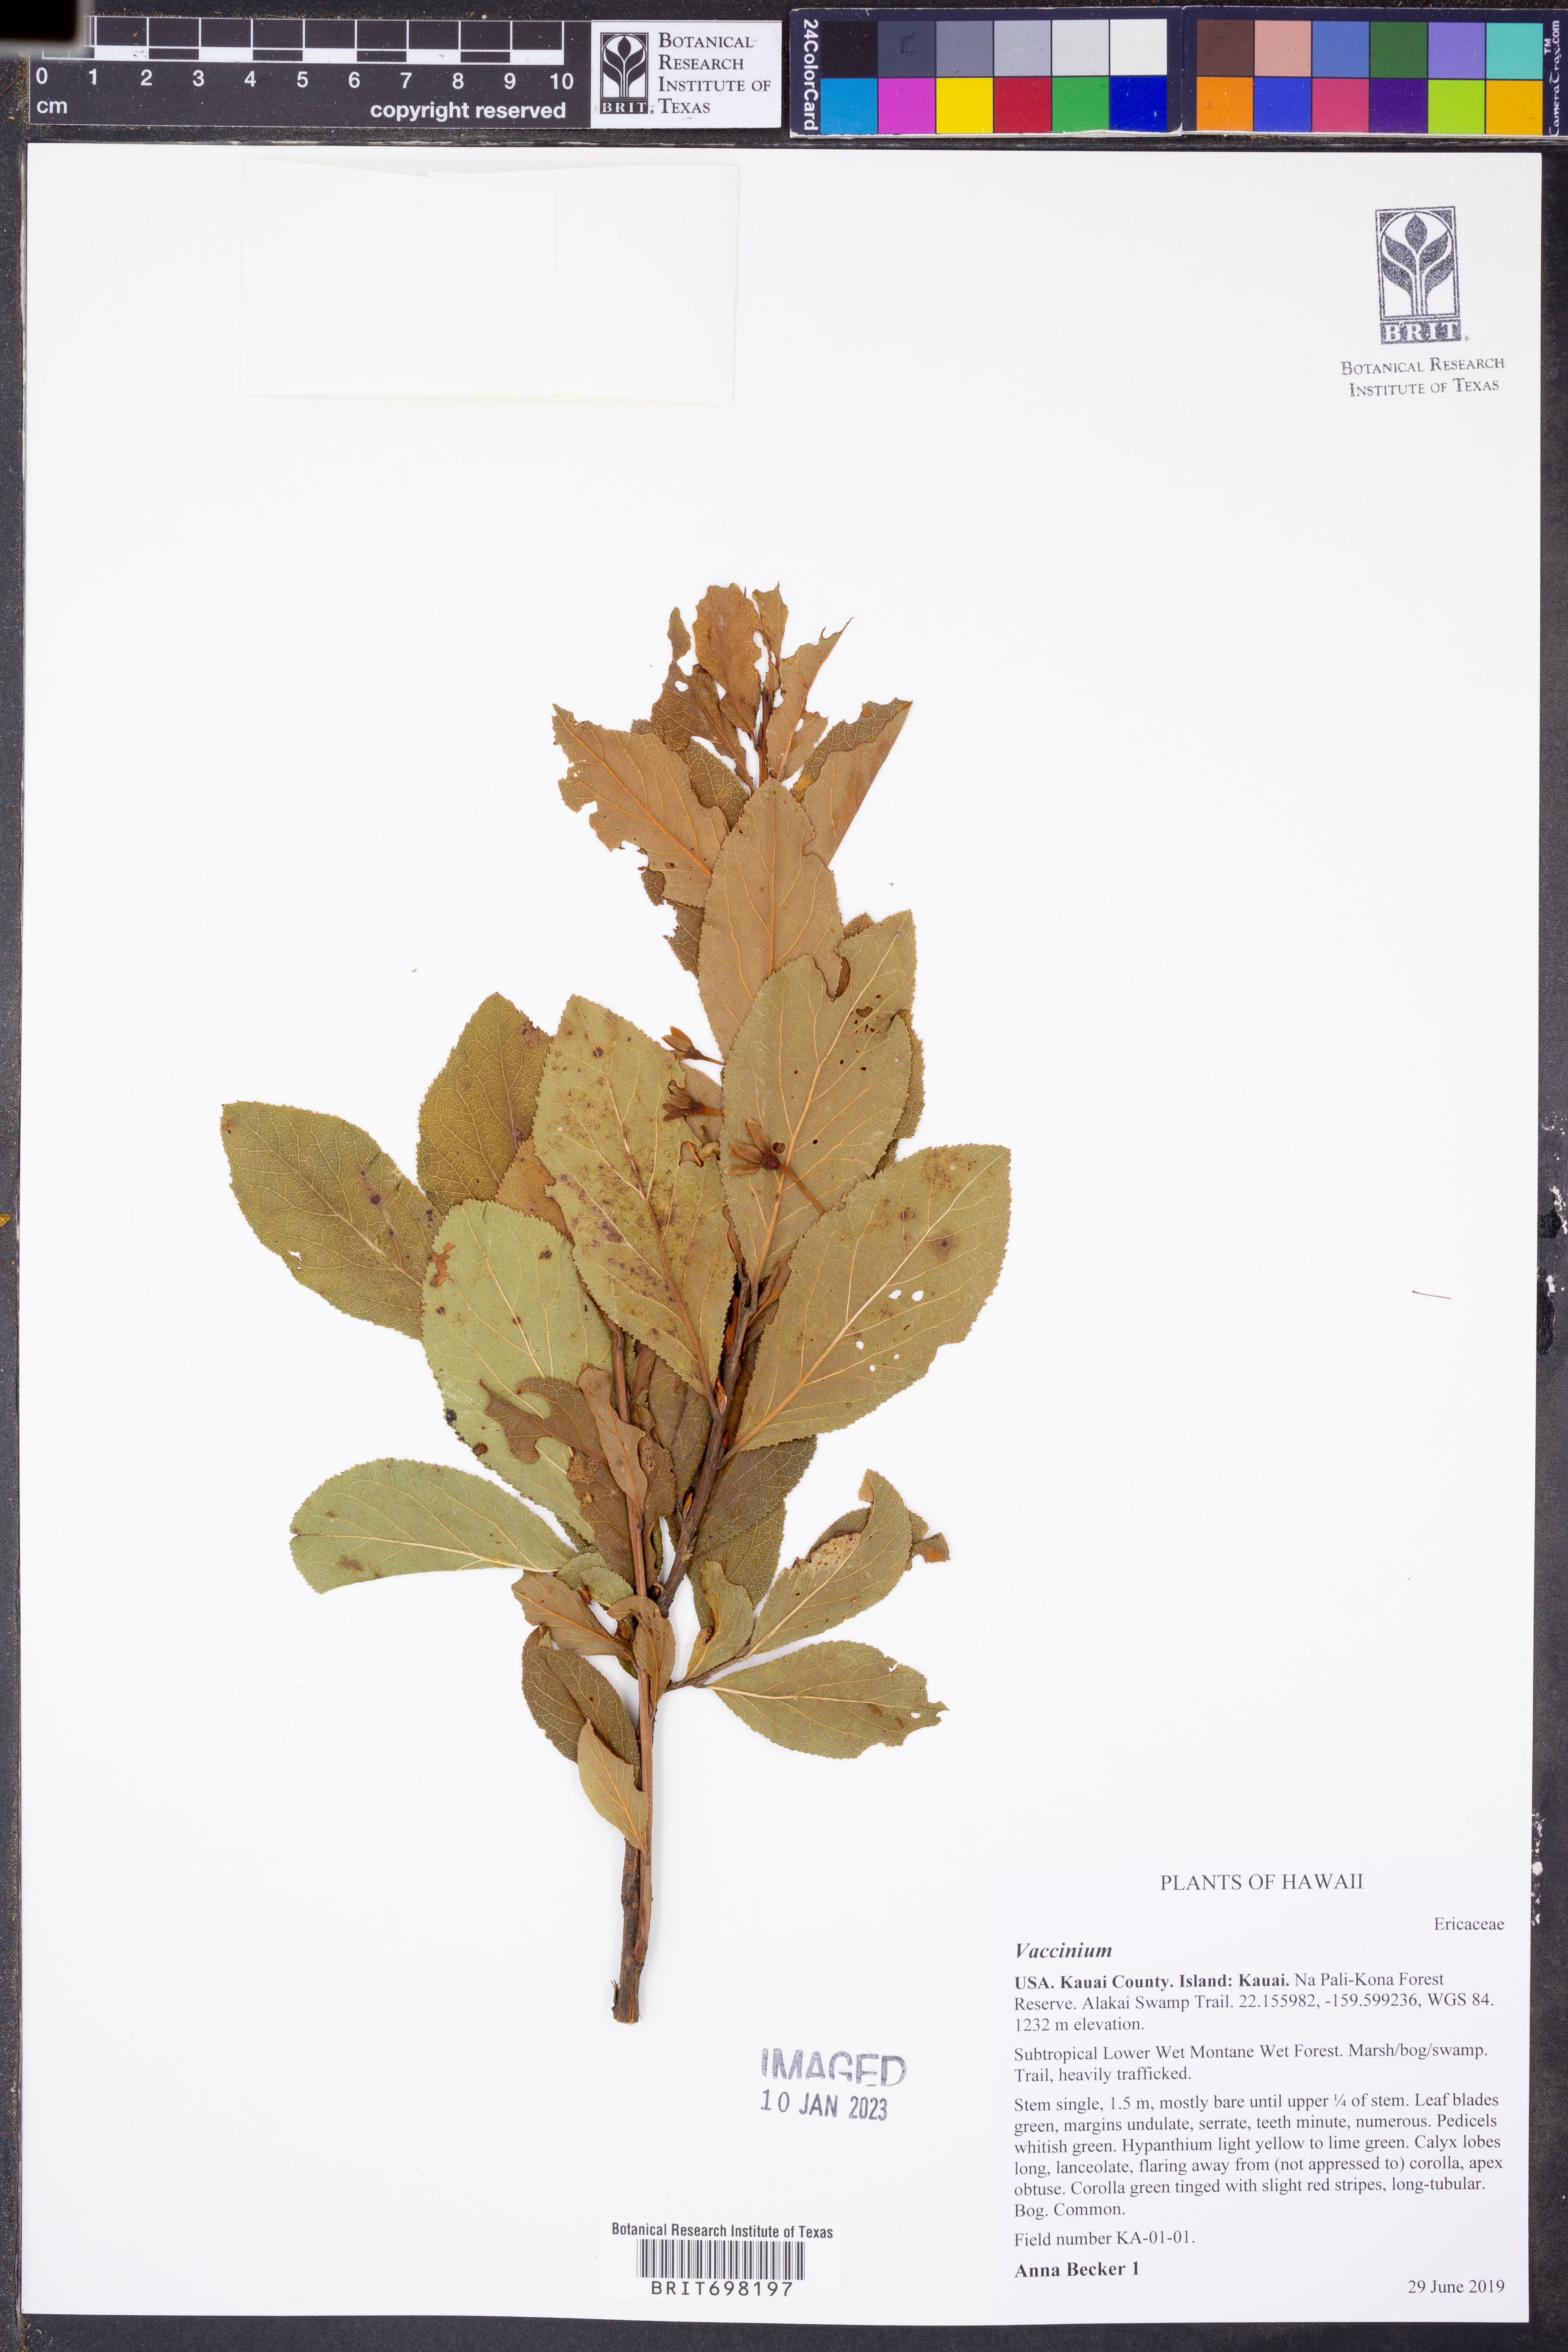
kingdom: Plantae
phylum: Tracheophyta
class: Magnoliopsida
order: Ericales
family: Ericaceae
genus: Vaccinium
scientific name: Vaccinium
